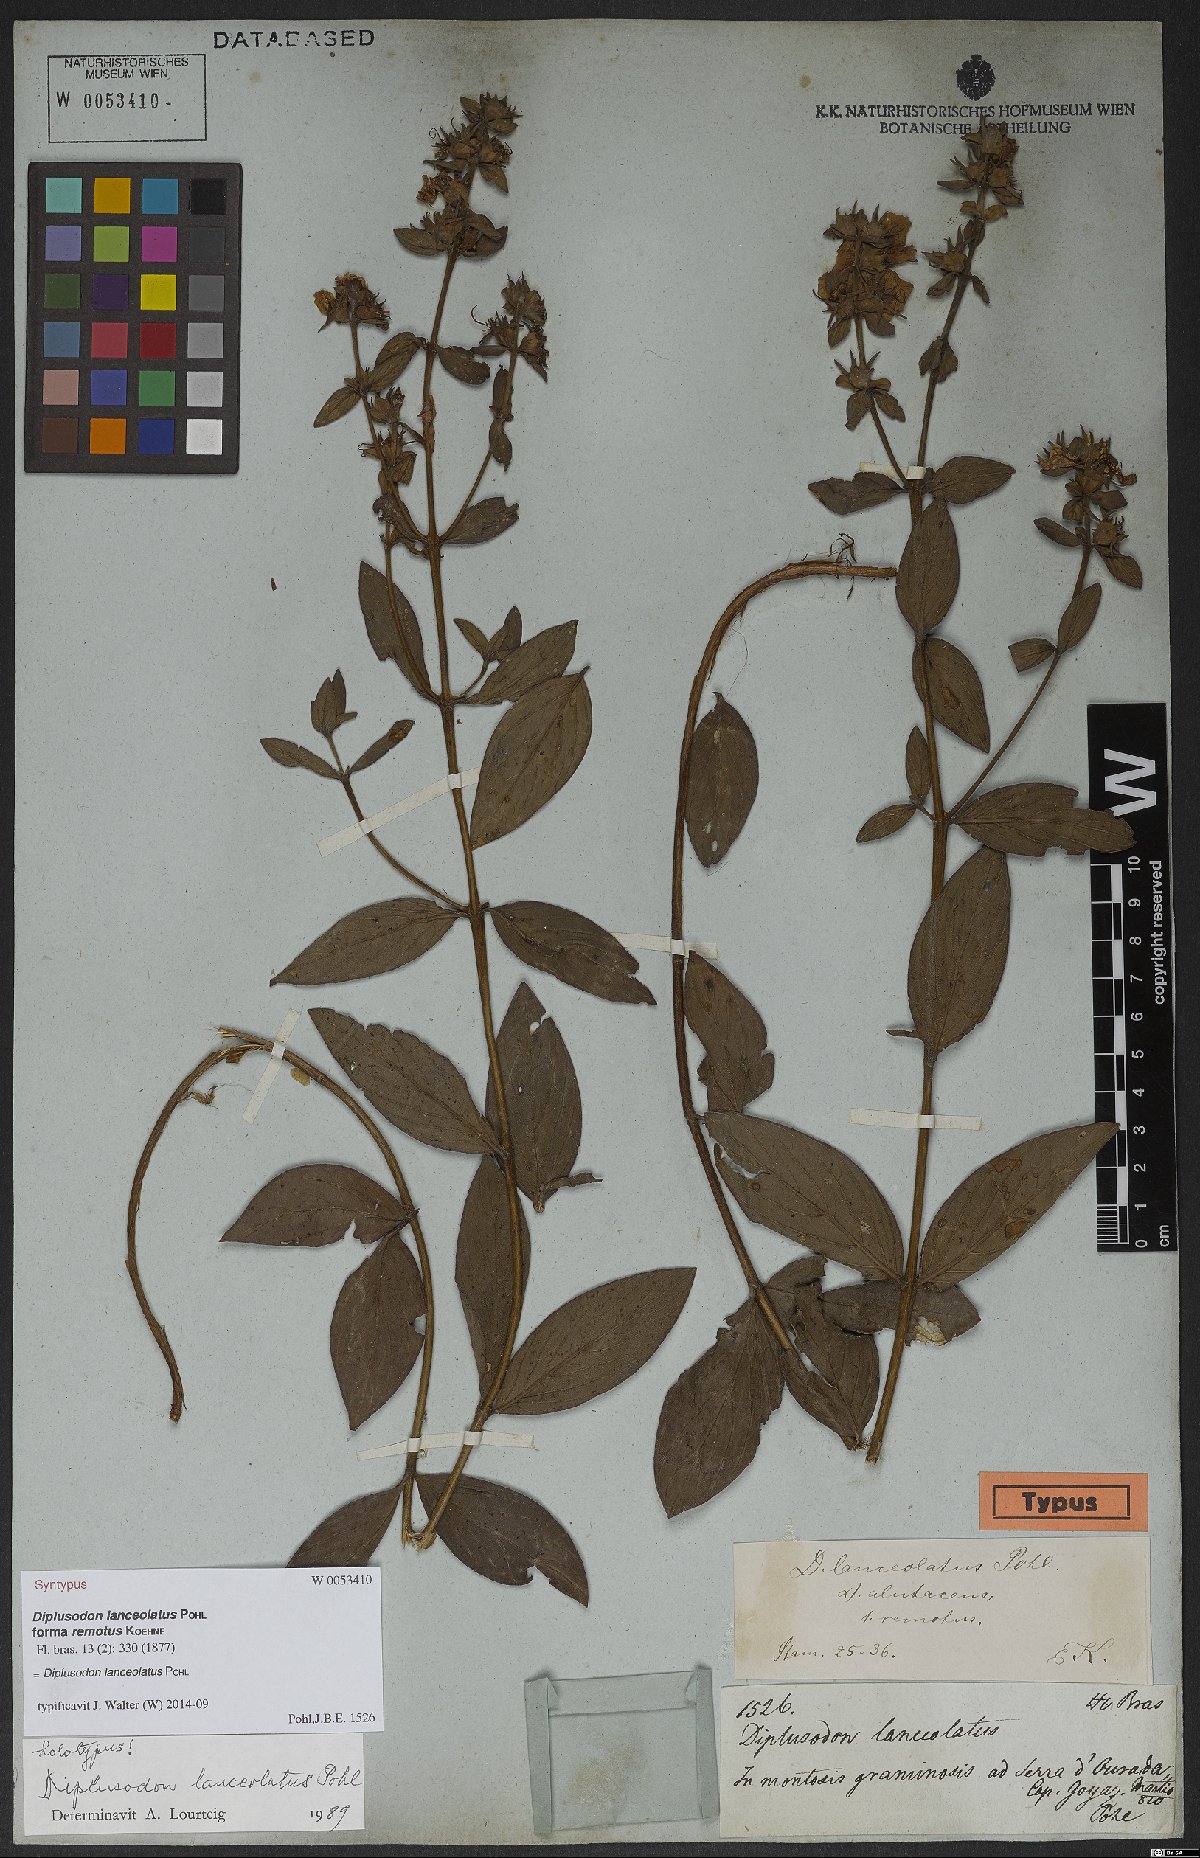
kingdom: Plantae
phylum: Tracheophyta
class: Magnoliopsida
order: Myrtales
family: Lythraceae
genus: Diplusodon
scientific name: Diplusodon lanceolatus
